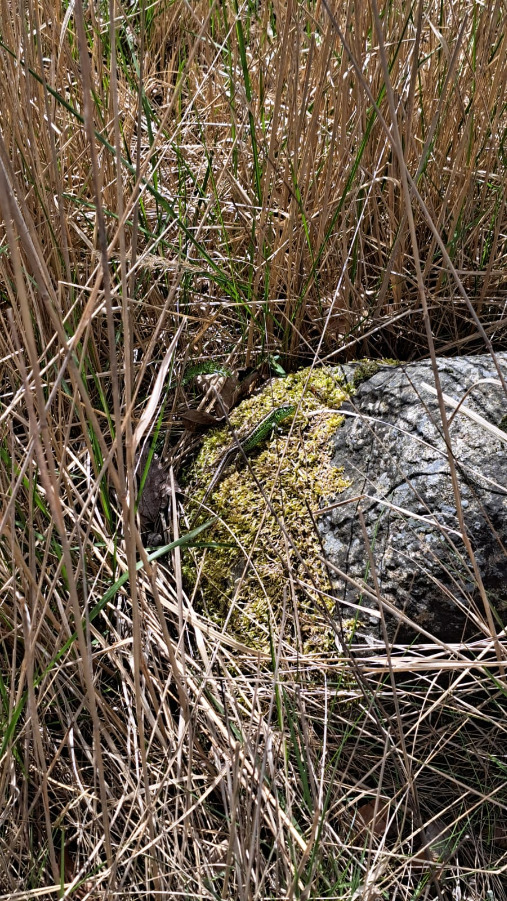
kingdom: Animalia
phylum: Chordata
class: Squamata
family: Lacertidae
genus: Lacerta
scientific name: Lacerta agilis
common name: Markfirben
